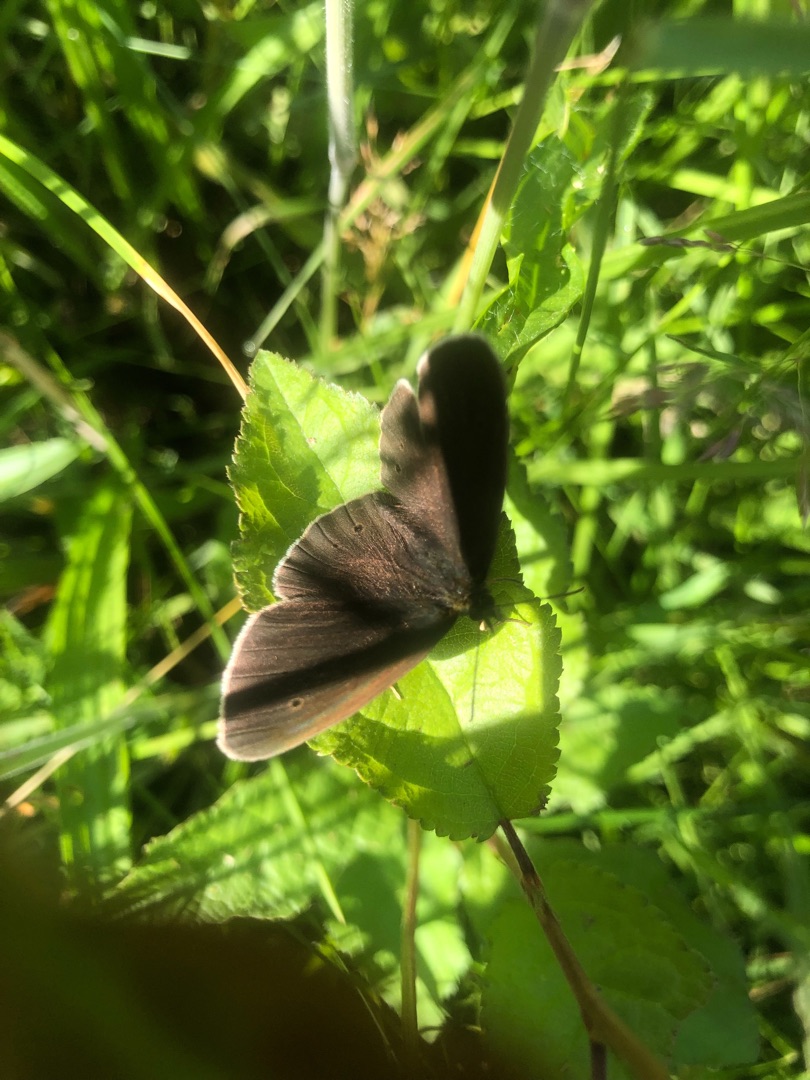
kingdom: Animalia
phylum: Arthropoda
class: Insecta
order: Lepidoptera
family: Nymphalidae
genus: Aphantopus
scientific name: Aphantopus hyperantus
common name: Engrandøje
